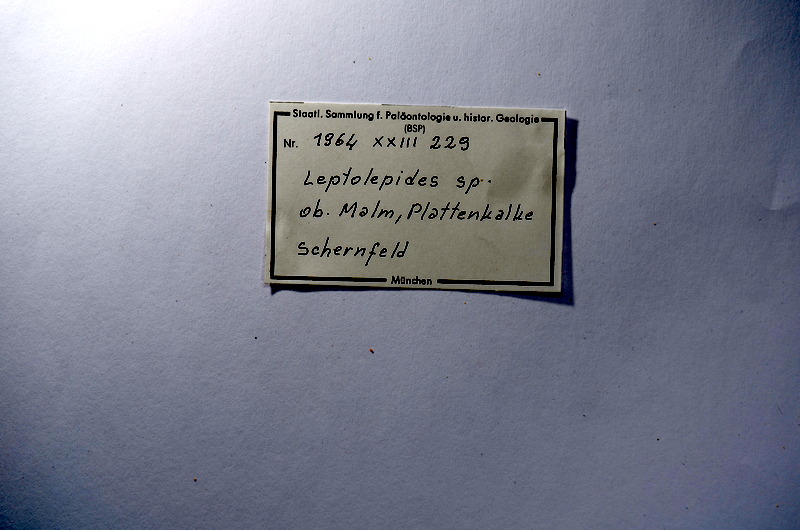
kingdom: Animalia
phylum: Chordata
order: Salmoniformes
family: Orthogonikleithridae
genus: Leptolepides
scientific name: Leptolepides
